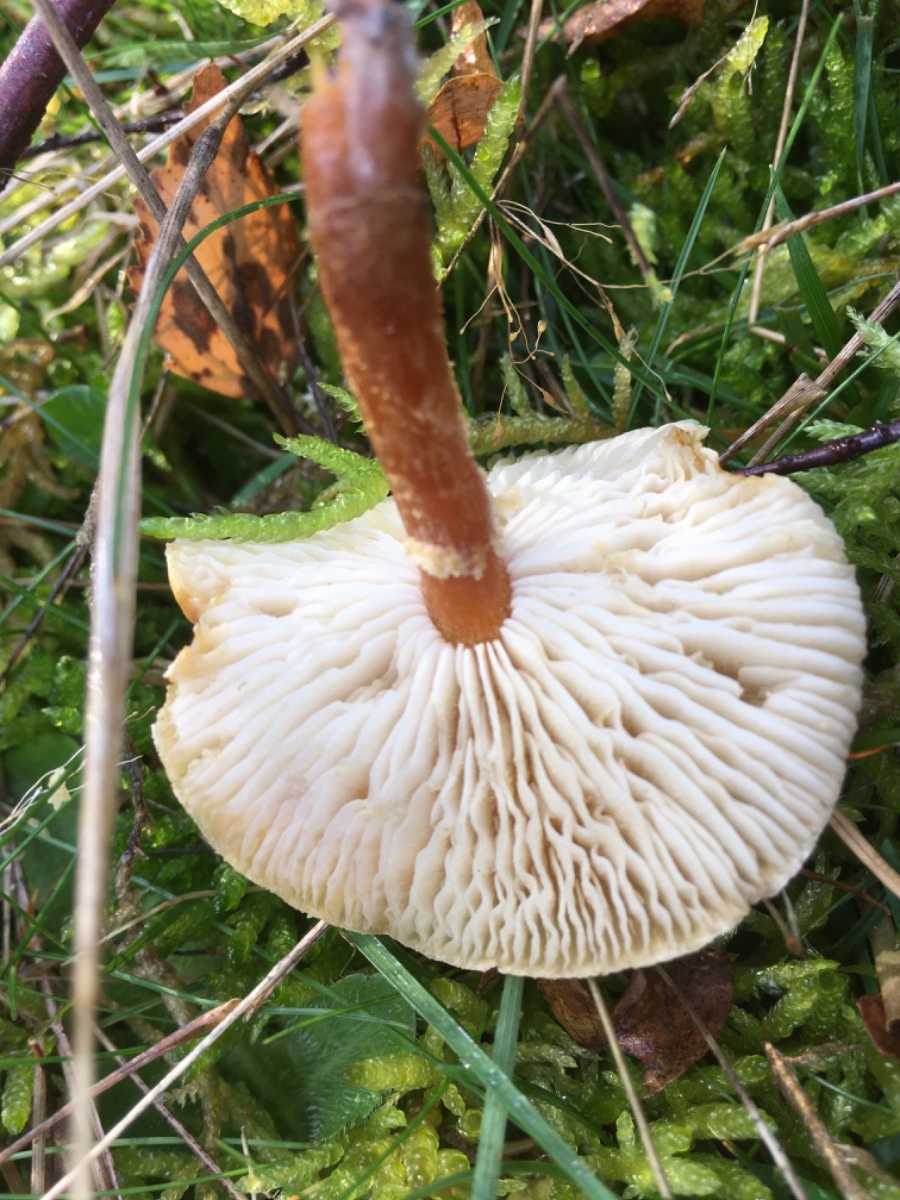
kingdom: Fungi
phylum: Basidiomycota
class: Agaricomycetes
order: Agaricales
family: Tricholomataceae
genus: Cystoderma
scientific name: Cystoderma amianthinum
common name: okkergul grynhat
